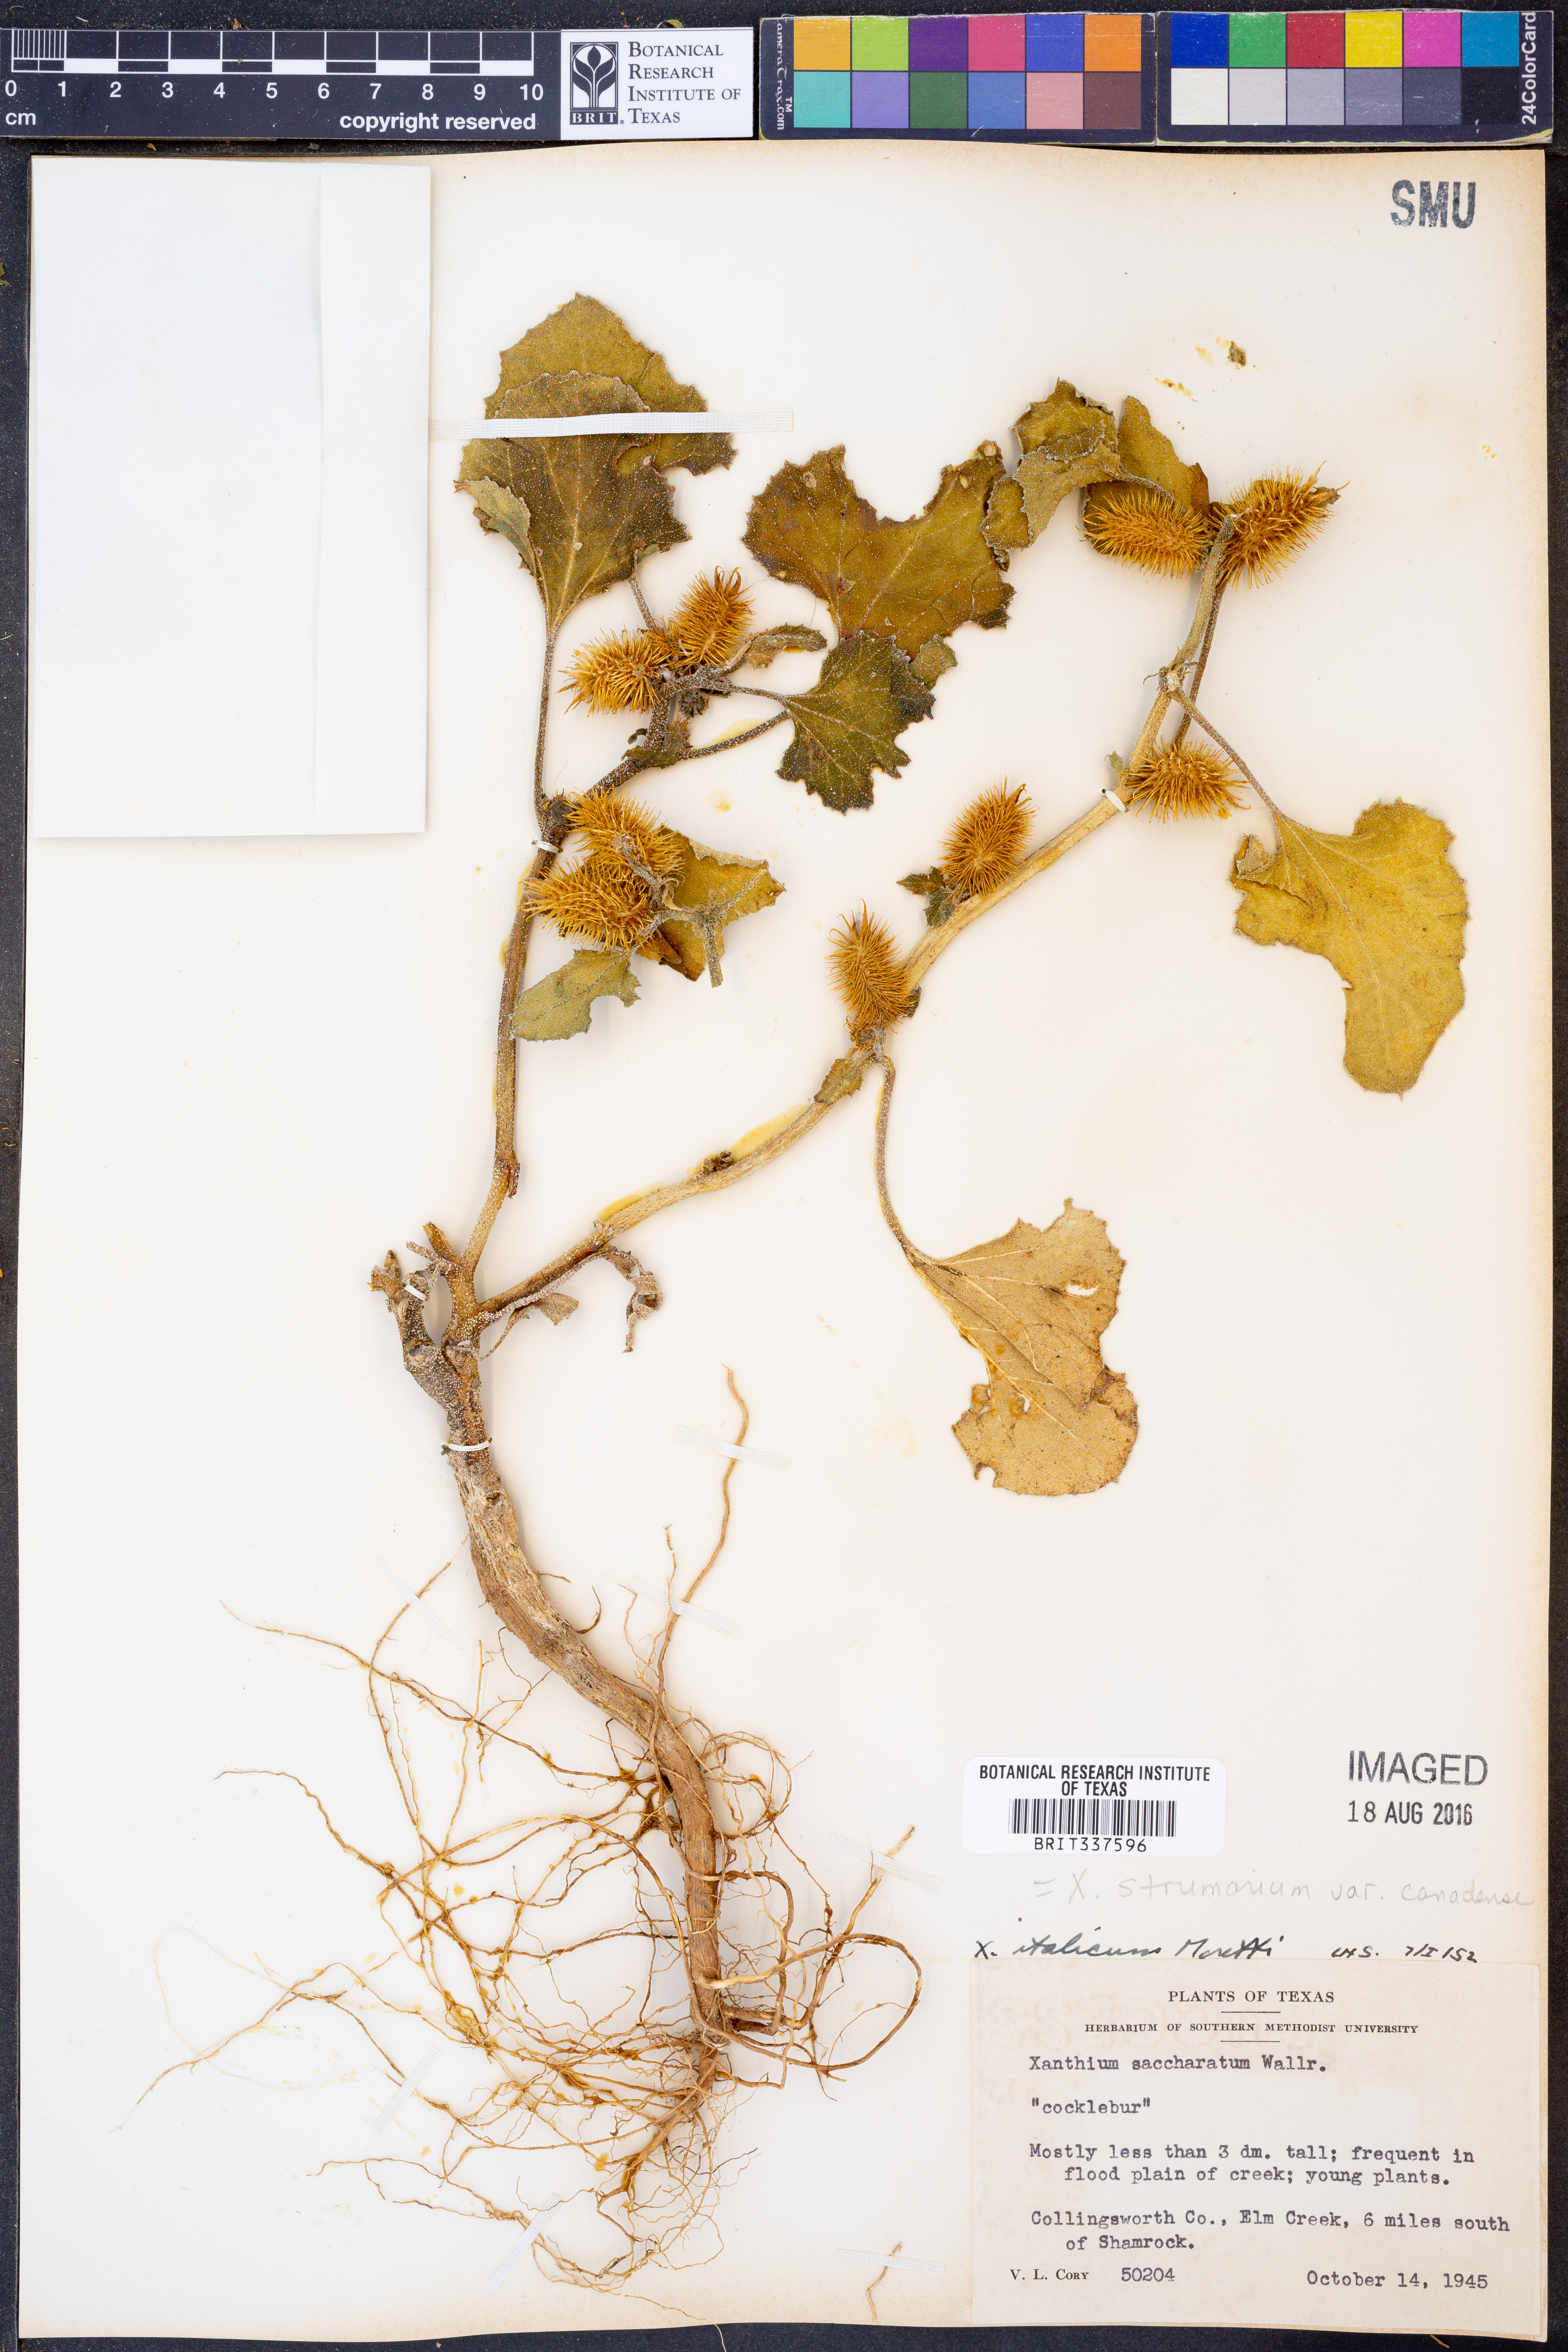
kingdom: Plantae
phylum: Tracheophyta
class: Magnoliopsida
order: Asterales
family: Asteraceae
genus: Xanthium
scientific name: Xanthium orientale
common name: Californian burr
